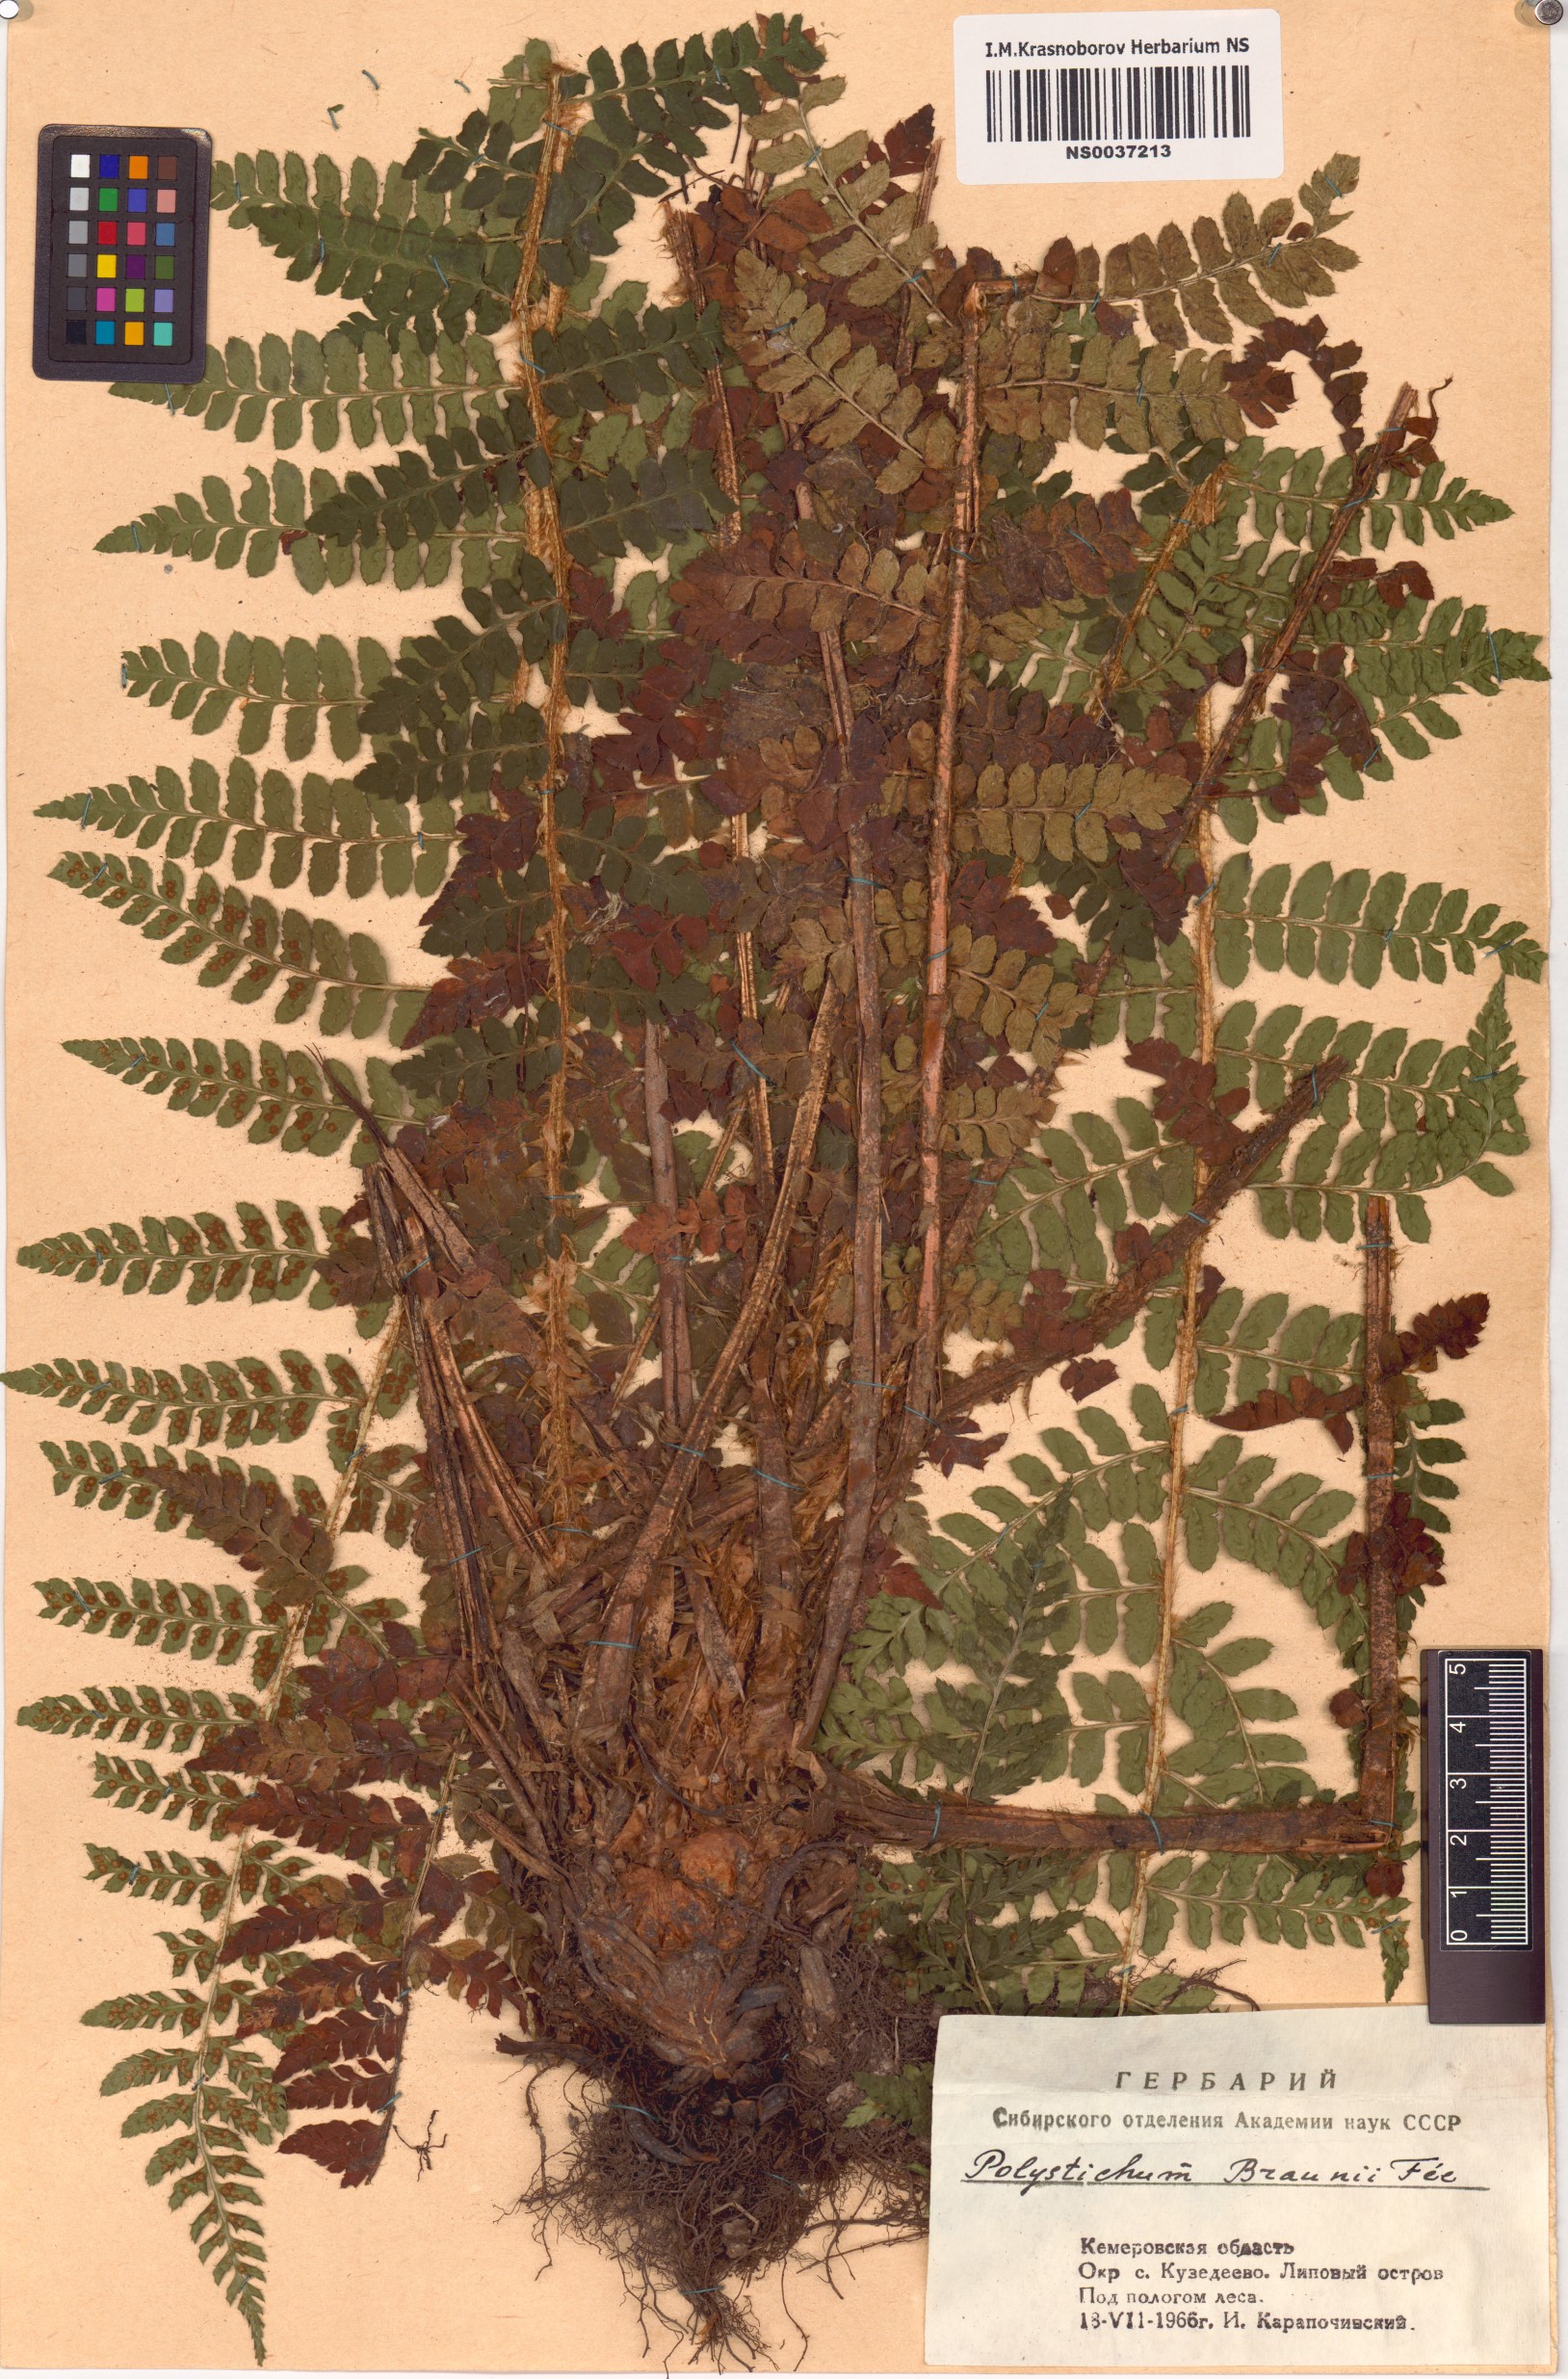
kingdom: Plantae
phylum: Tracheophyta
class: Polypodiopsida
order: Polypodiales
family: Dryopteridaceae
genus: Polystichum
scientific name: Polystichum braunii
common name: Braun's holly fern
